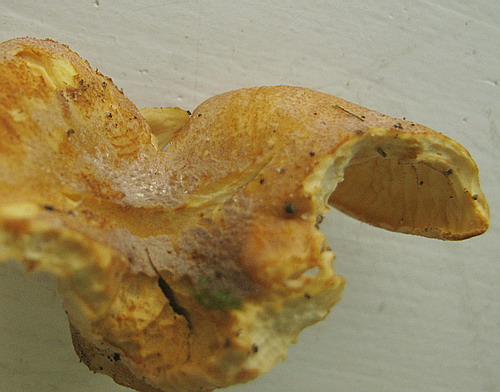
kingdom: Fungi
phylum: Basidiomycota
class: Agaricomycetes
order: Cantharellales
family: Hydnaceae
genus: Cantharellus
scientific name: Cantharellus amethysteus
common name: ametyst-kantarel
